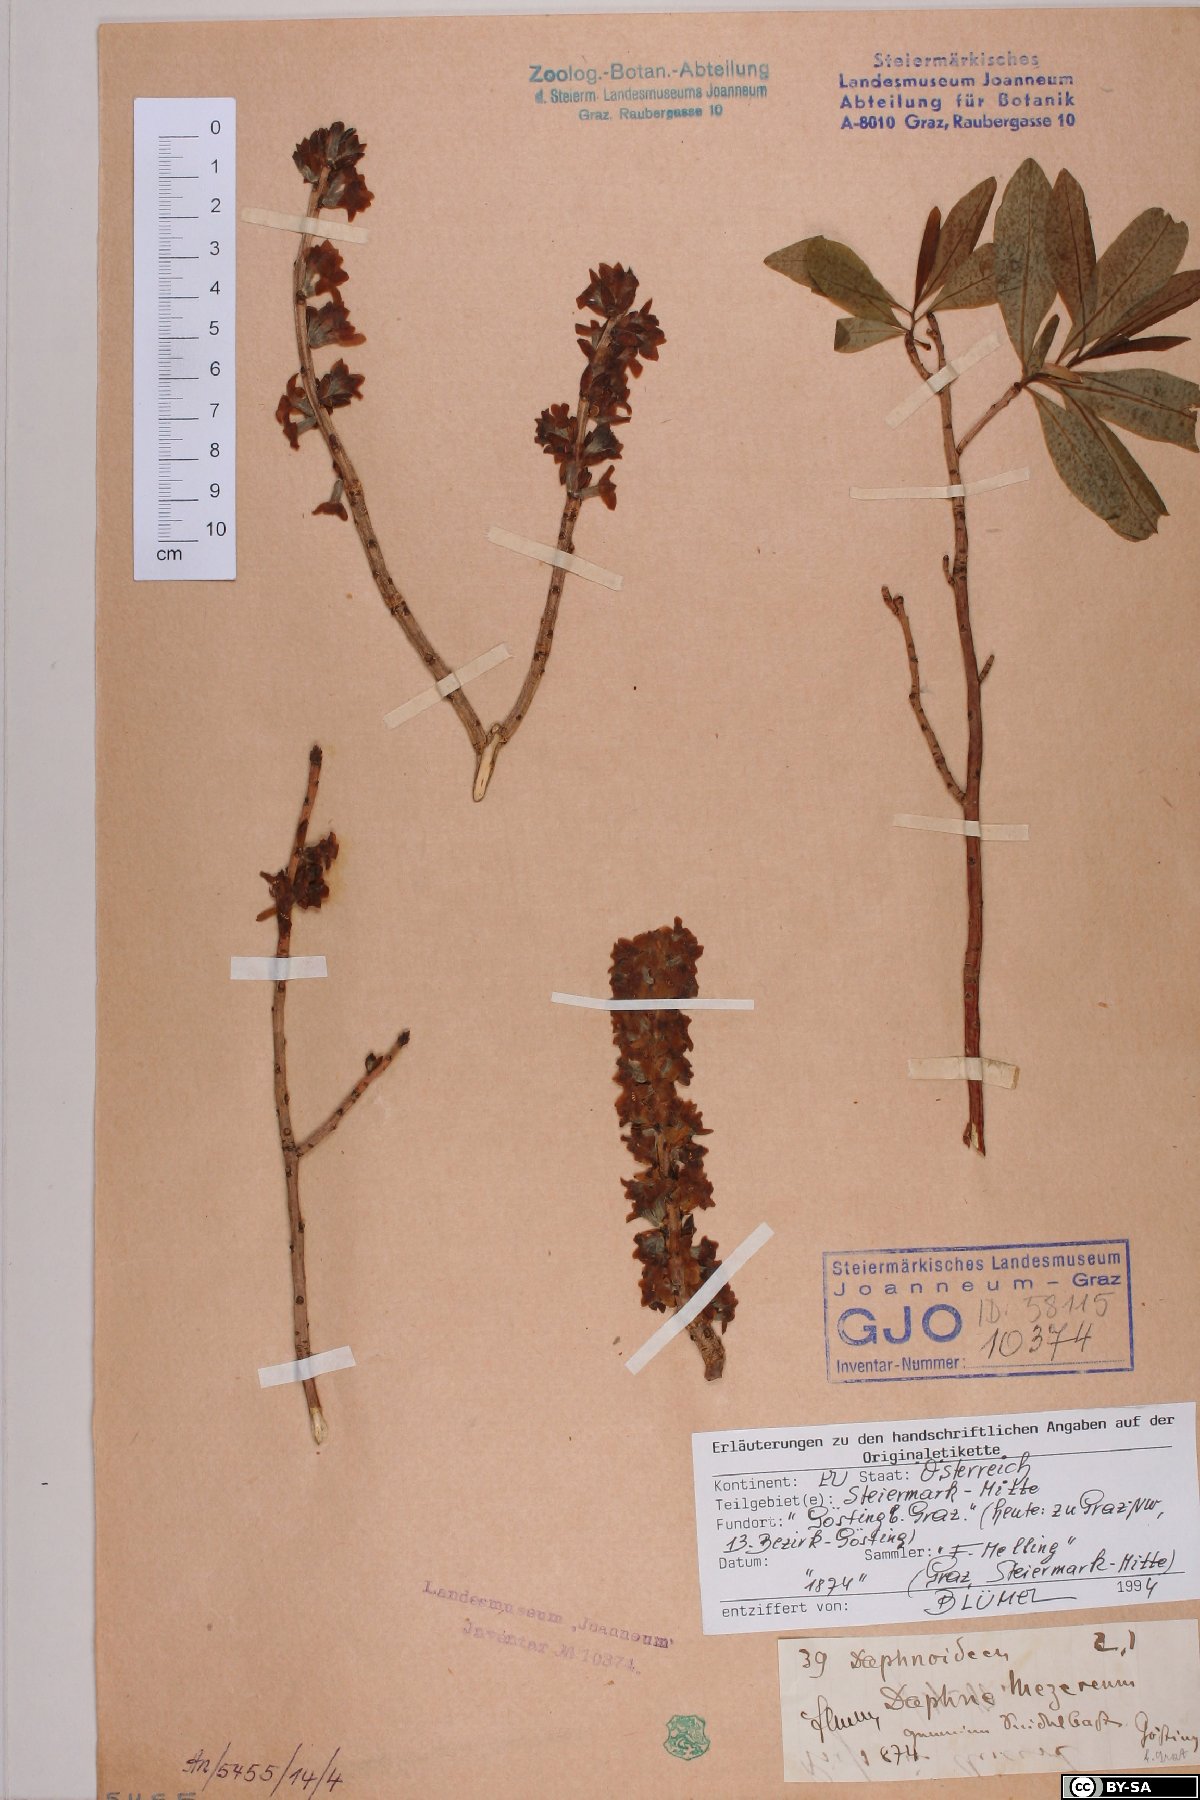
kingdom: Plantae
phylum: Tracheophyta
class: Magnoliopsida
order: Malvales
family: Thymelaeaceae
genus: Daphne
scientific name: Daphne mezereum
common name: Mezereon
